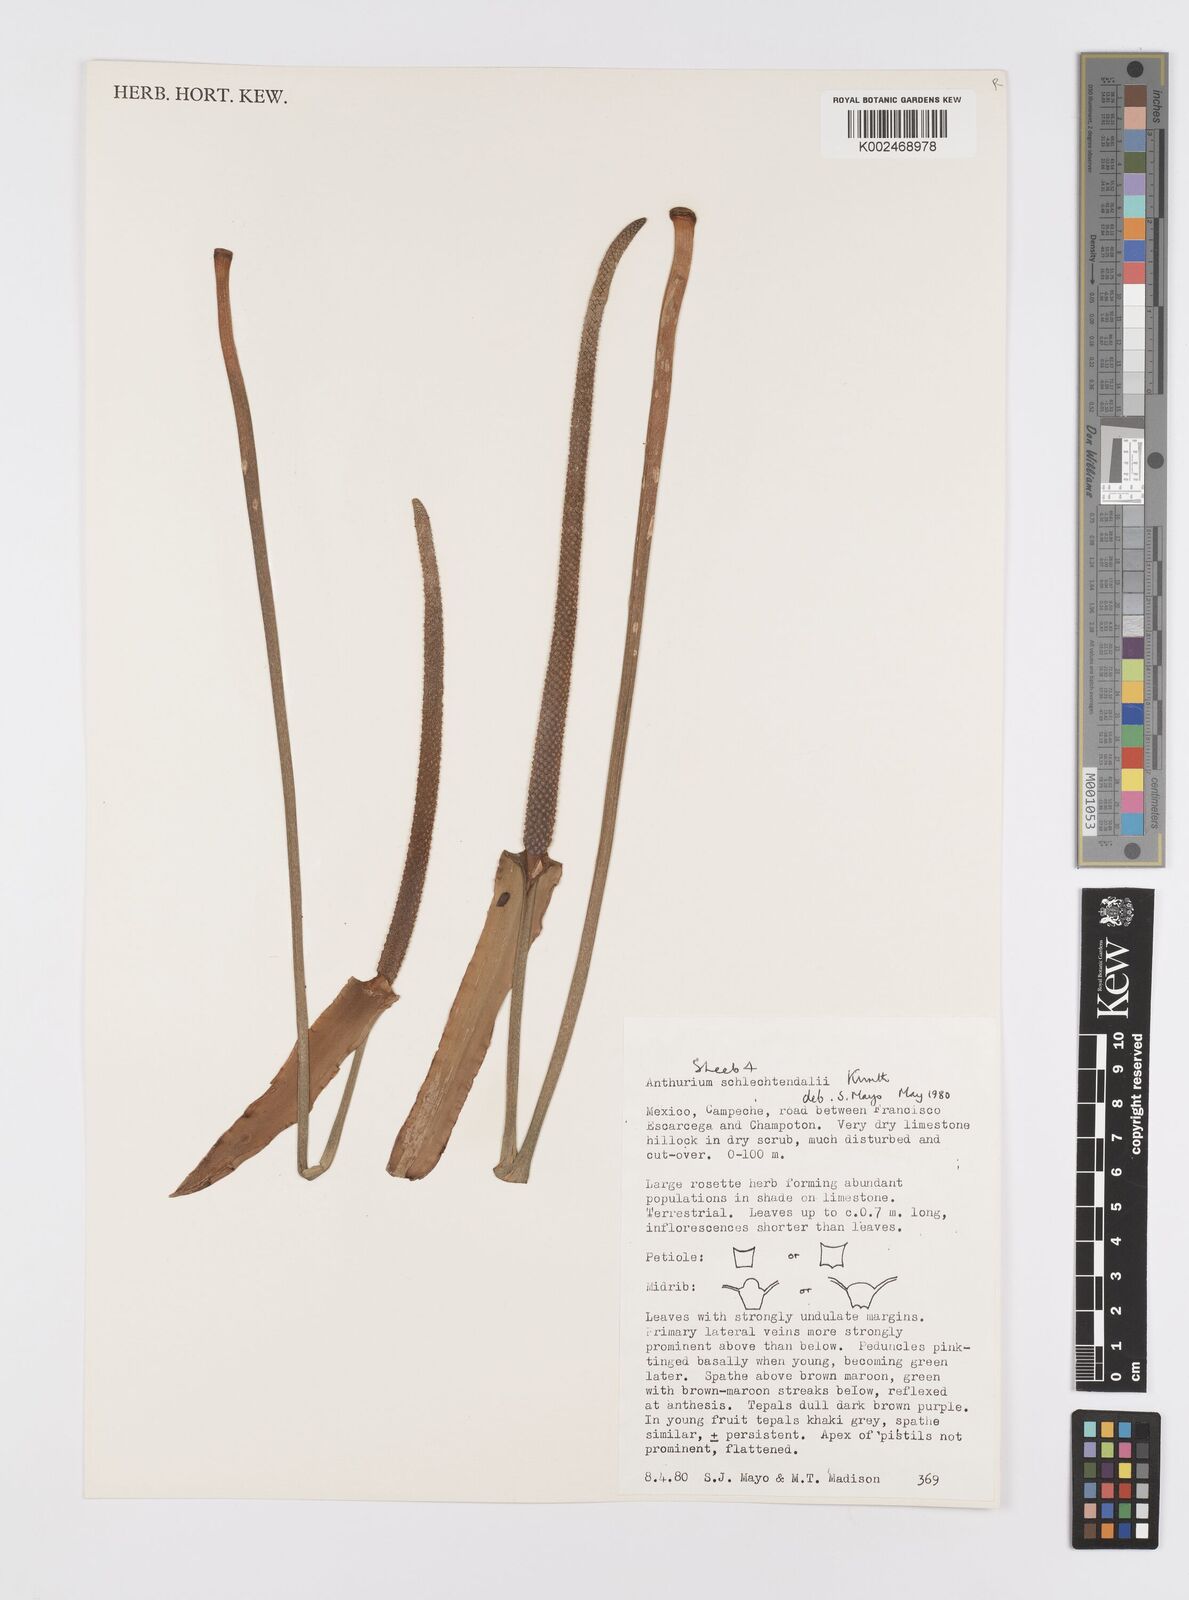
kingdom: Plantae
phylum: Tracheophyta
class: Liliopsida
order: Alismatales
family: Araceae
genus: Anthurium
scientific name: Anthurium schlechtendalii
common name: Laceleaf
